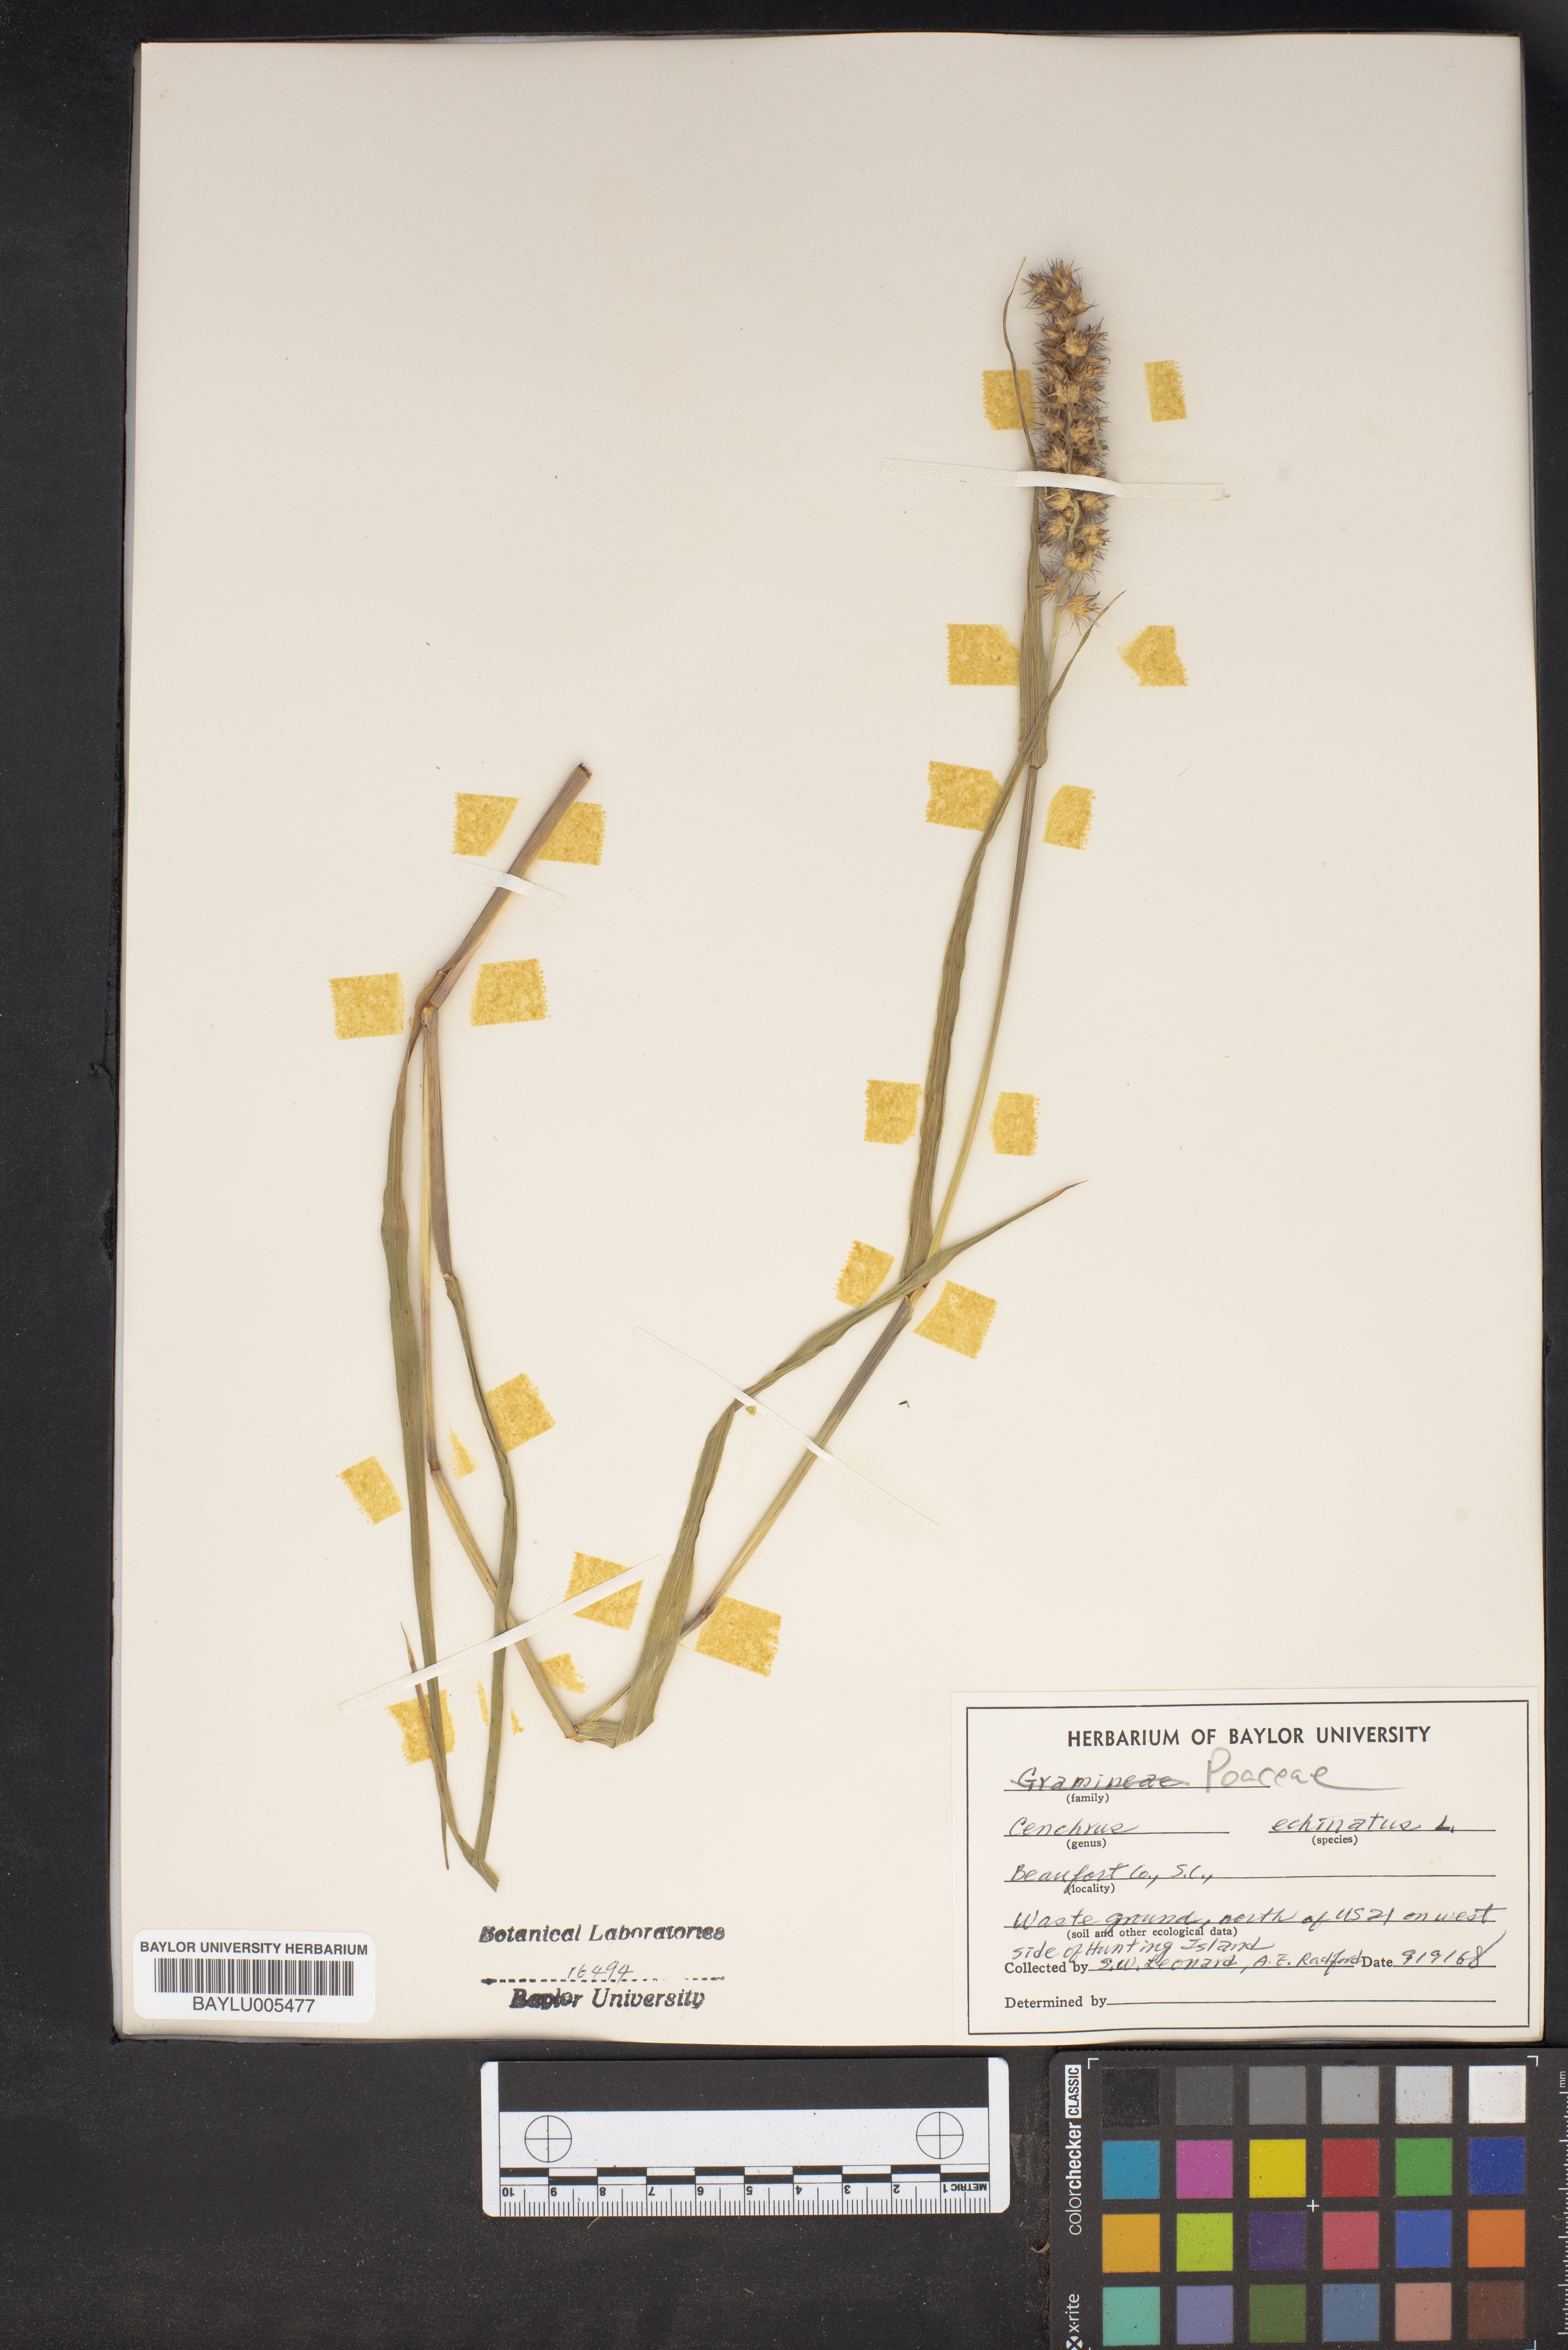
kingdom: Plantae
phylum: Tracheophyta
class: Liliopsida
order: Poales
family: Poaceae
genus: Cenchrus
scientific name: Cenchrus echinatus
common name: Southern sandbur
